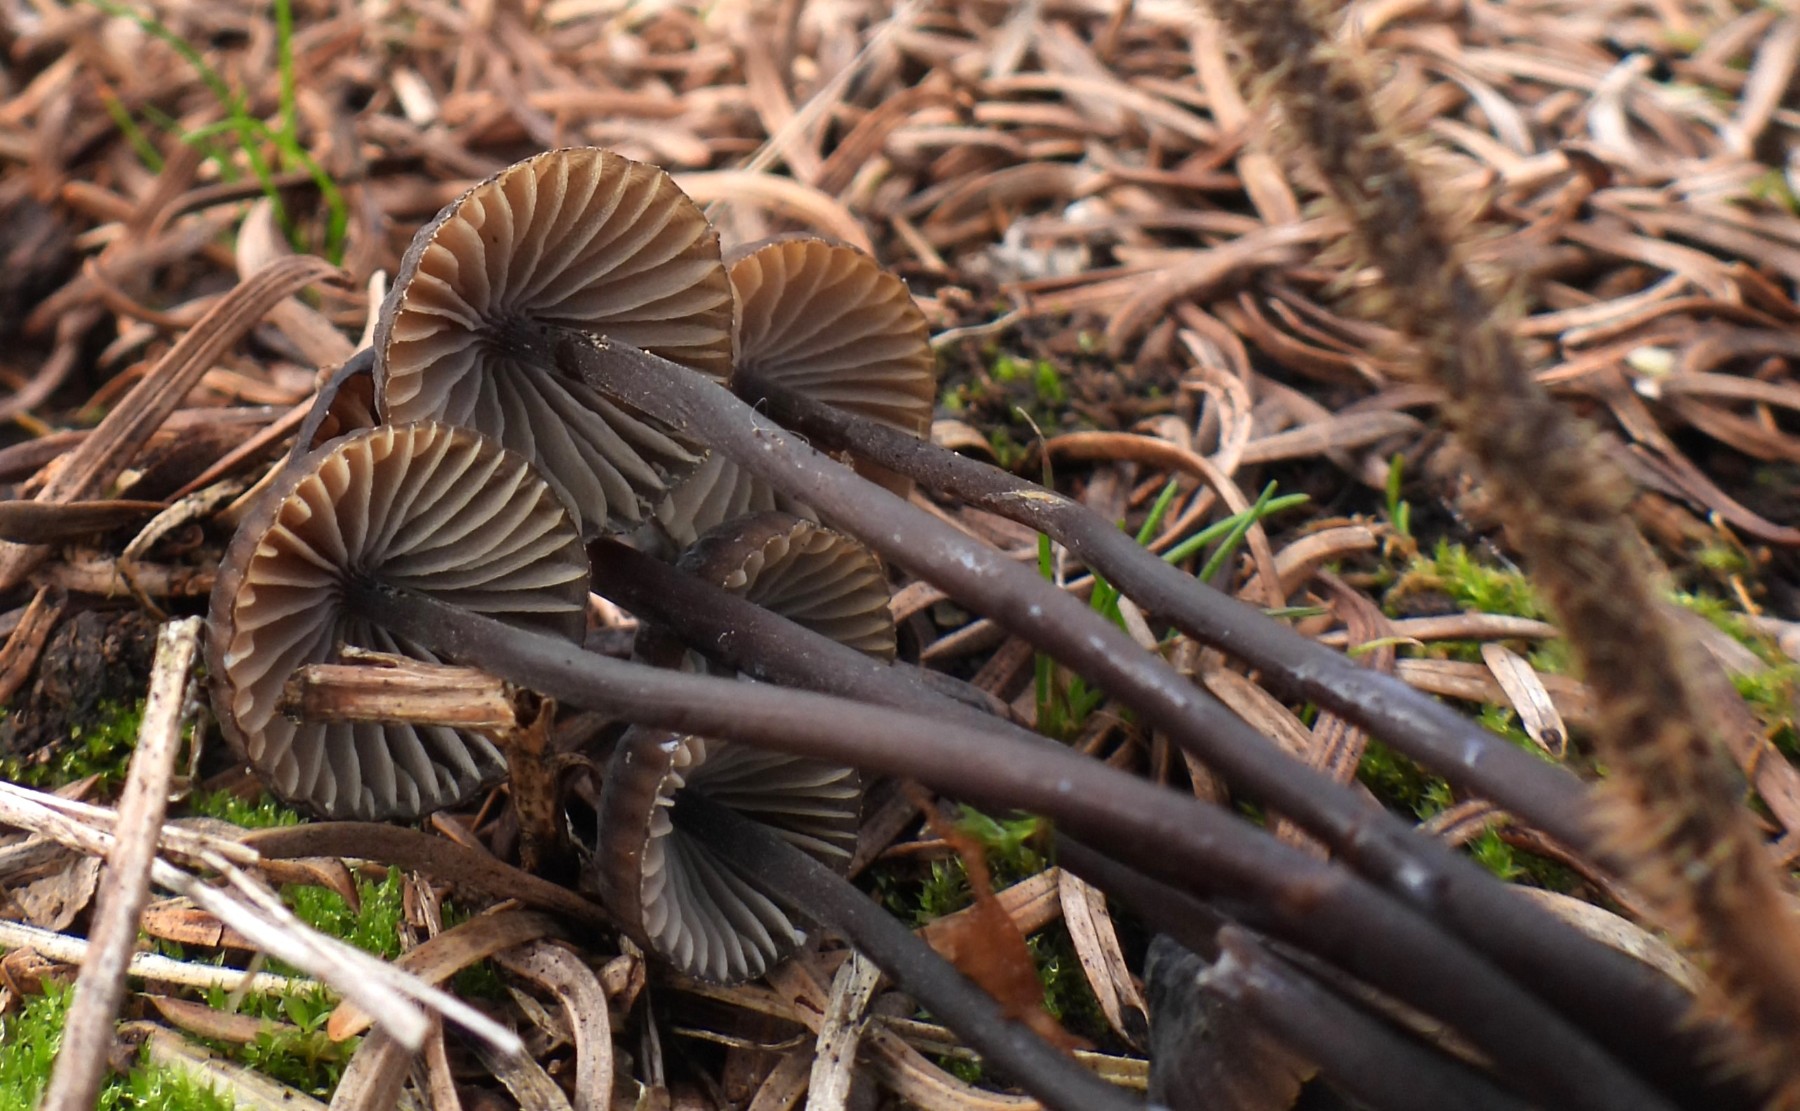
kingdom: Fungi
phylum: Basidiomycota
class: Agaricomycetes
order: Agaricales
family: Mycenaceae
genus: Mycena
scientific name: Mycena galopus
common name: hvidmælket huesvamp
